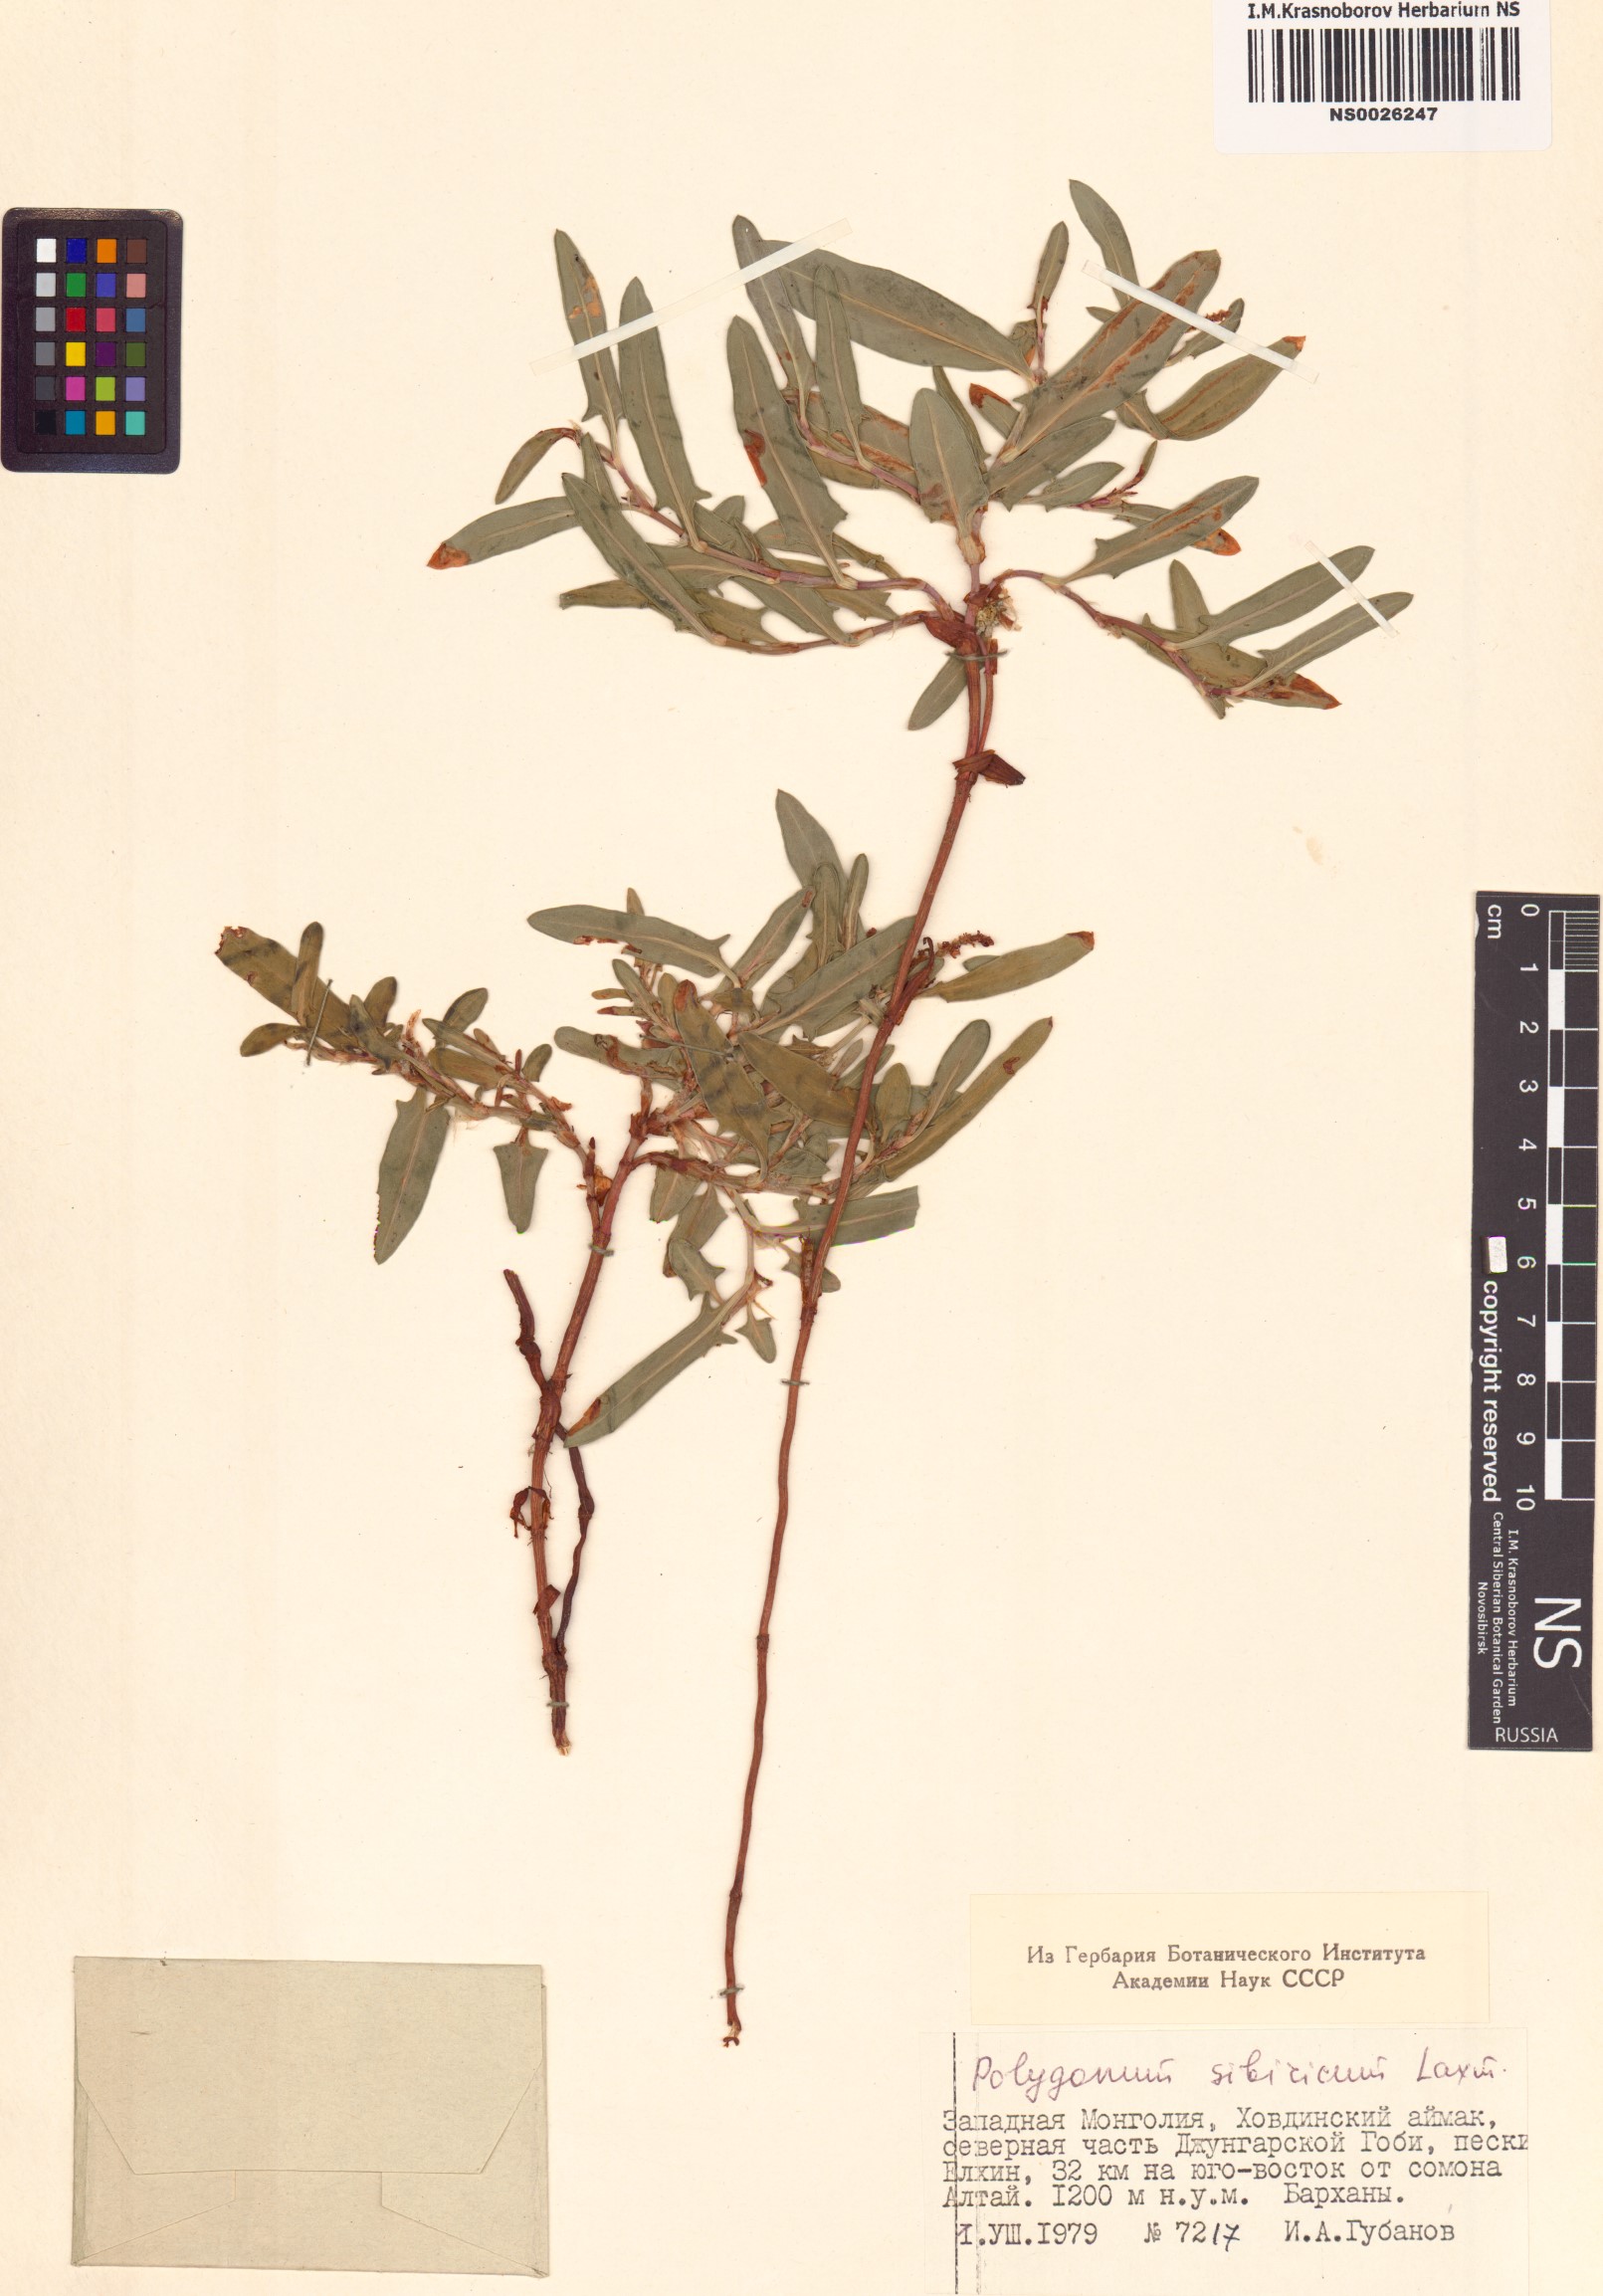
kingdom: Plantae
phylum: Tracheophyta
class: Magnoliopsida
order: Caryophyllales
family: Polygonaceae
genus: Knorringia
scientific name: Knorringia sibirica
